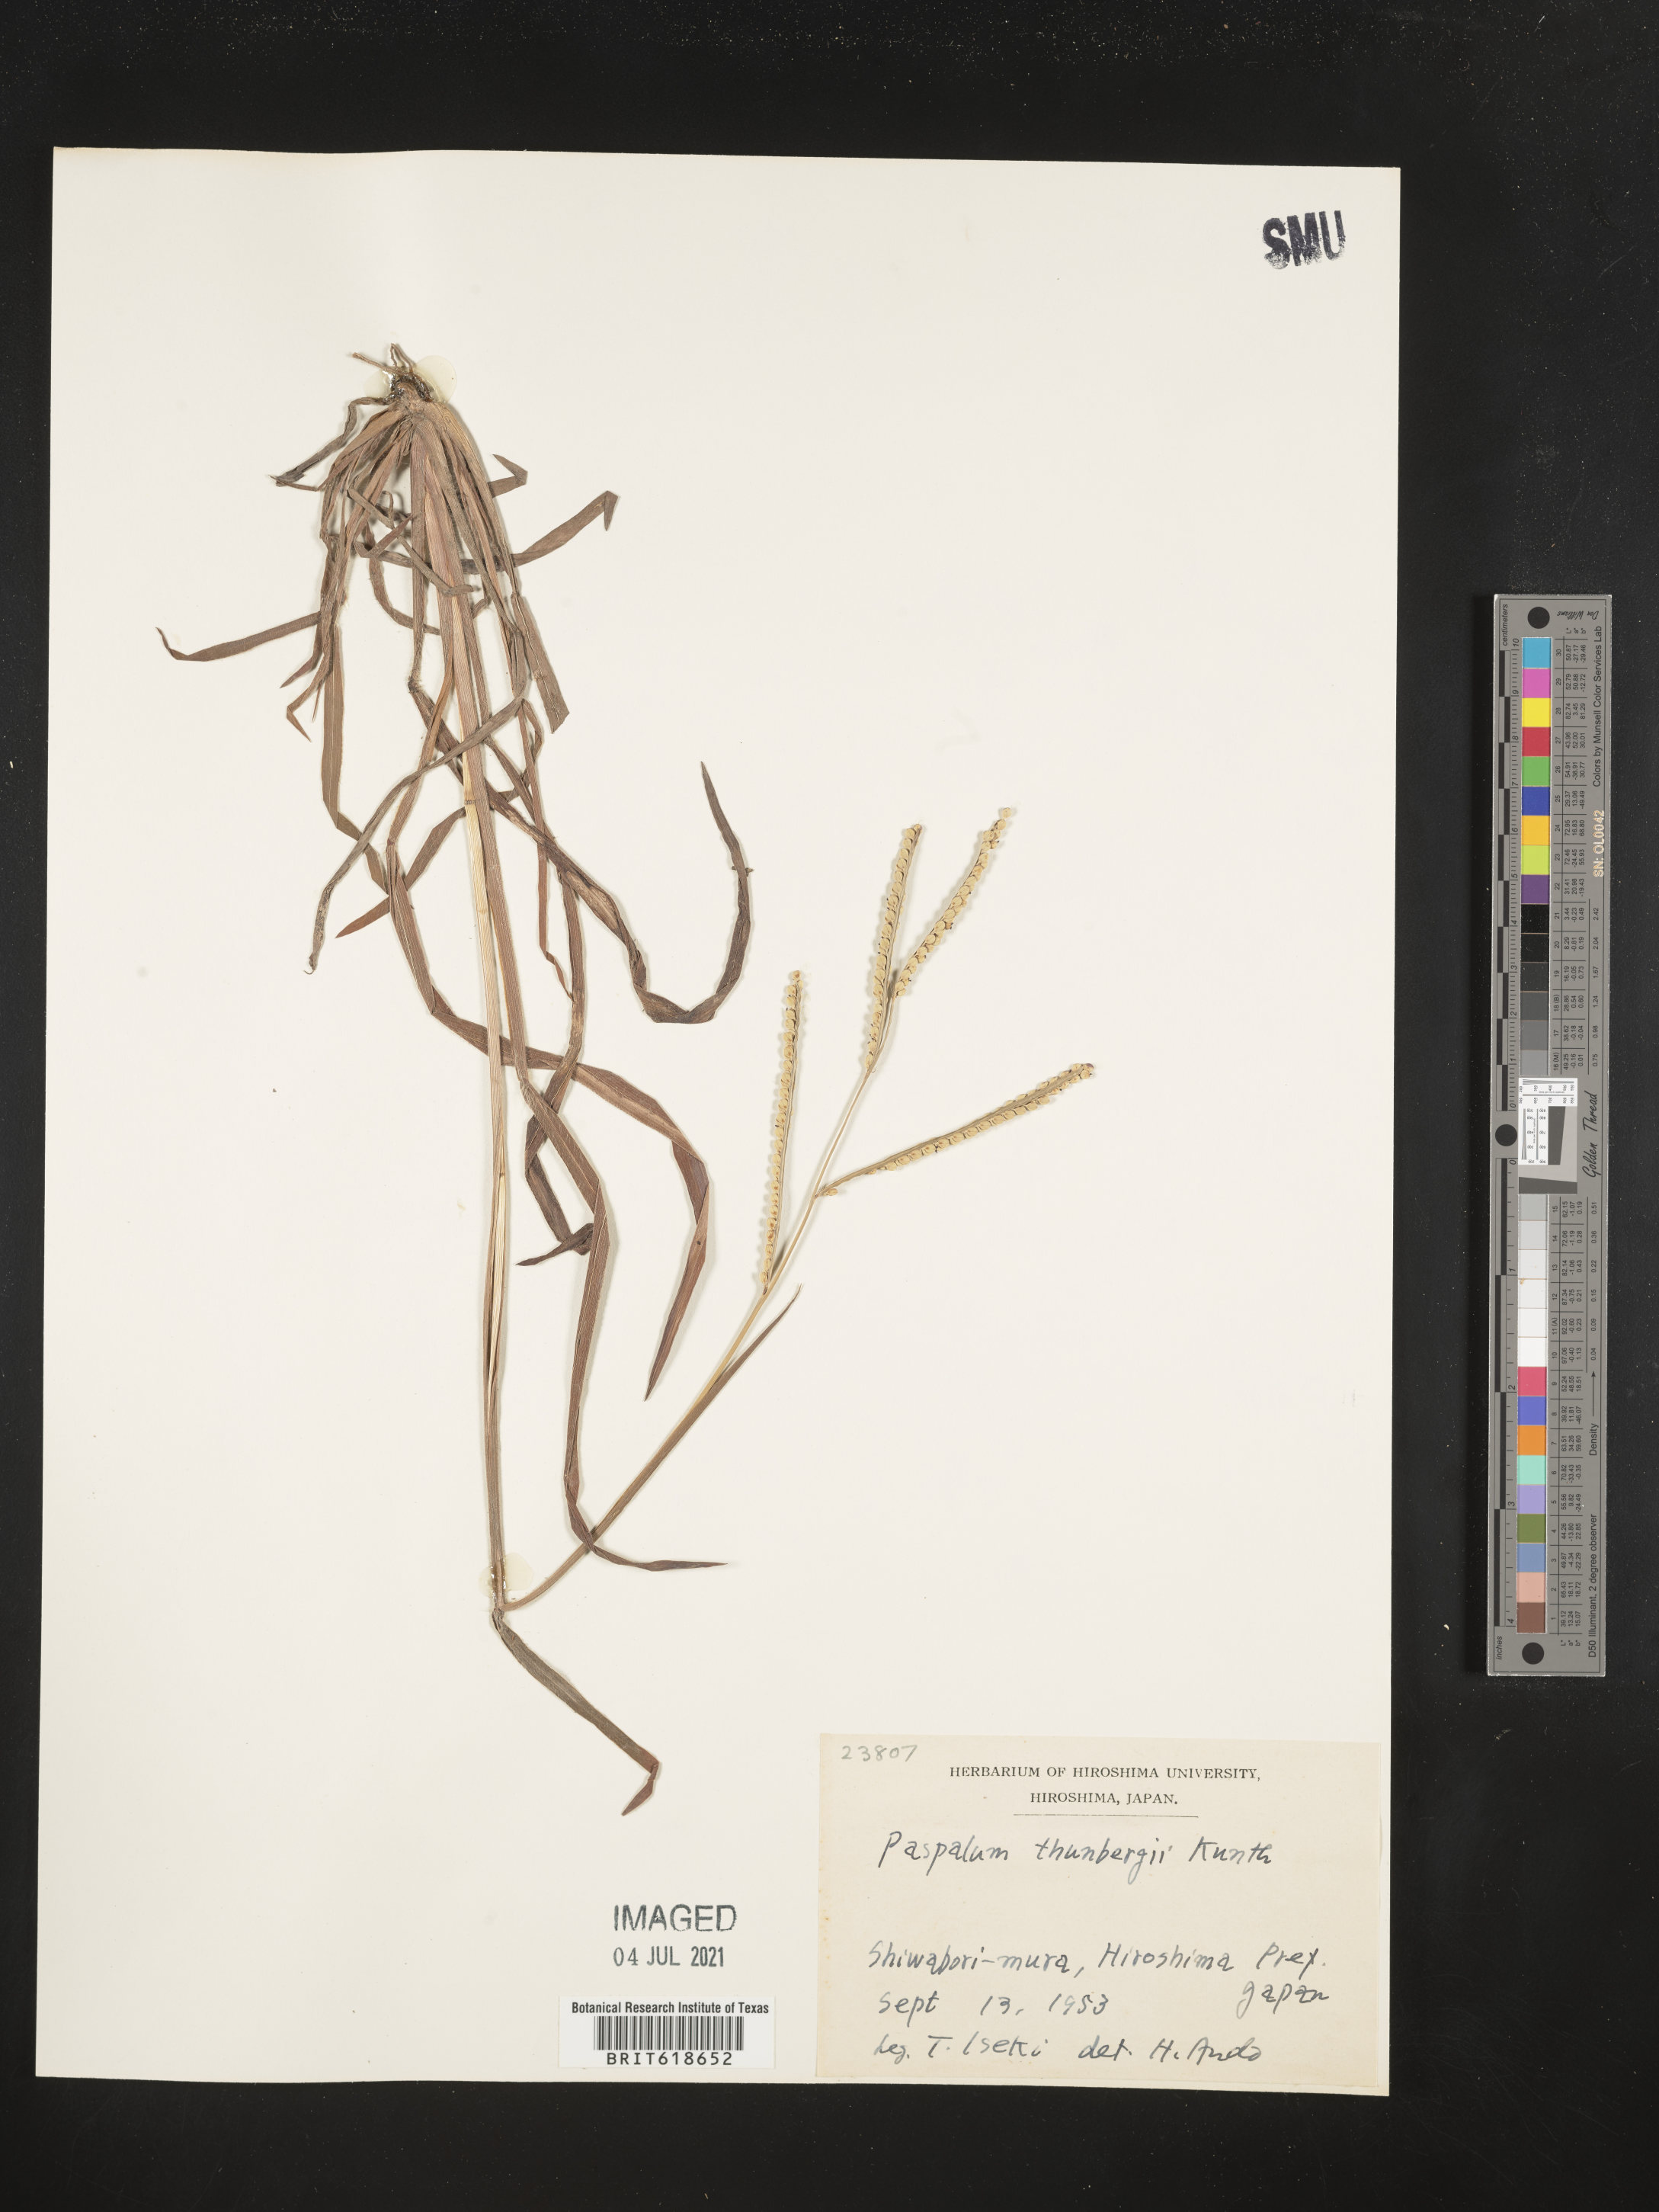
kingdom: Plantae
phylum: Tracheophyta
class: Liliopsida
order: Poales
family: Poaceae
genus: Paspalum
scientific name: Paspalum thunbergii
